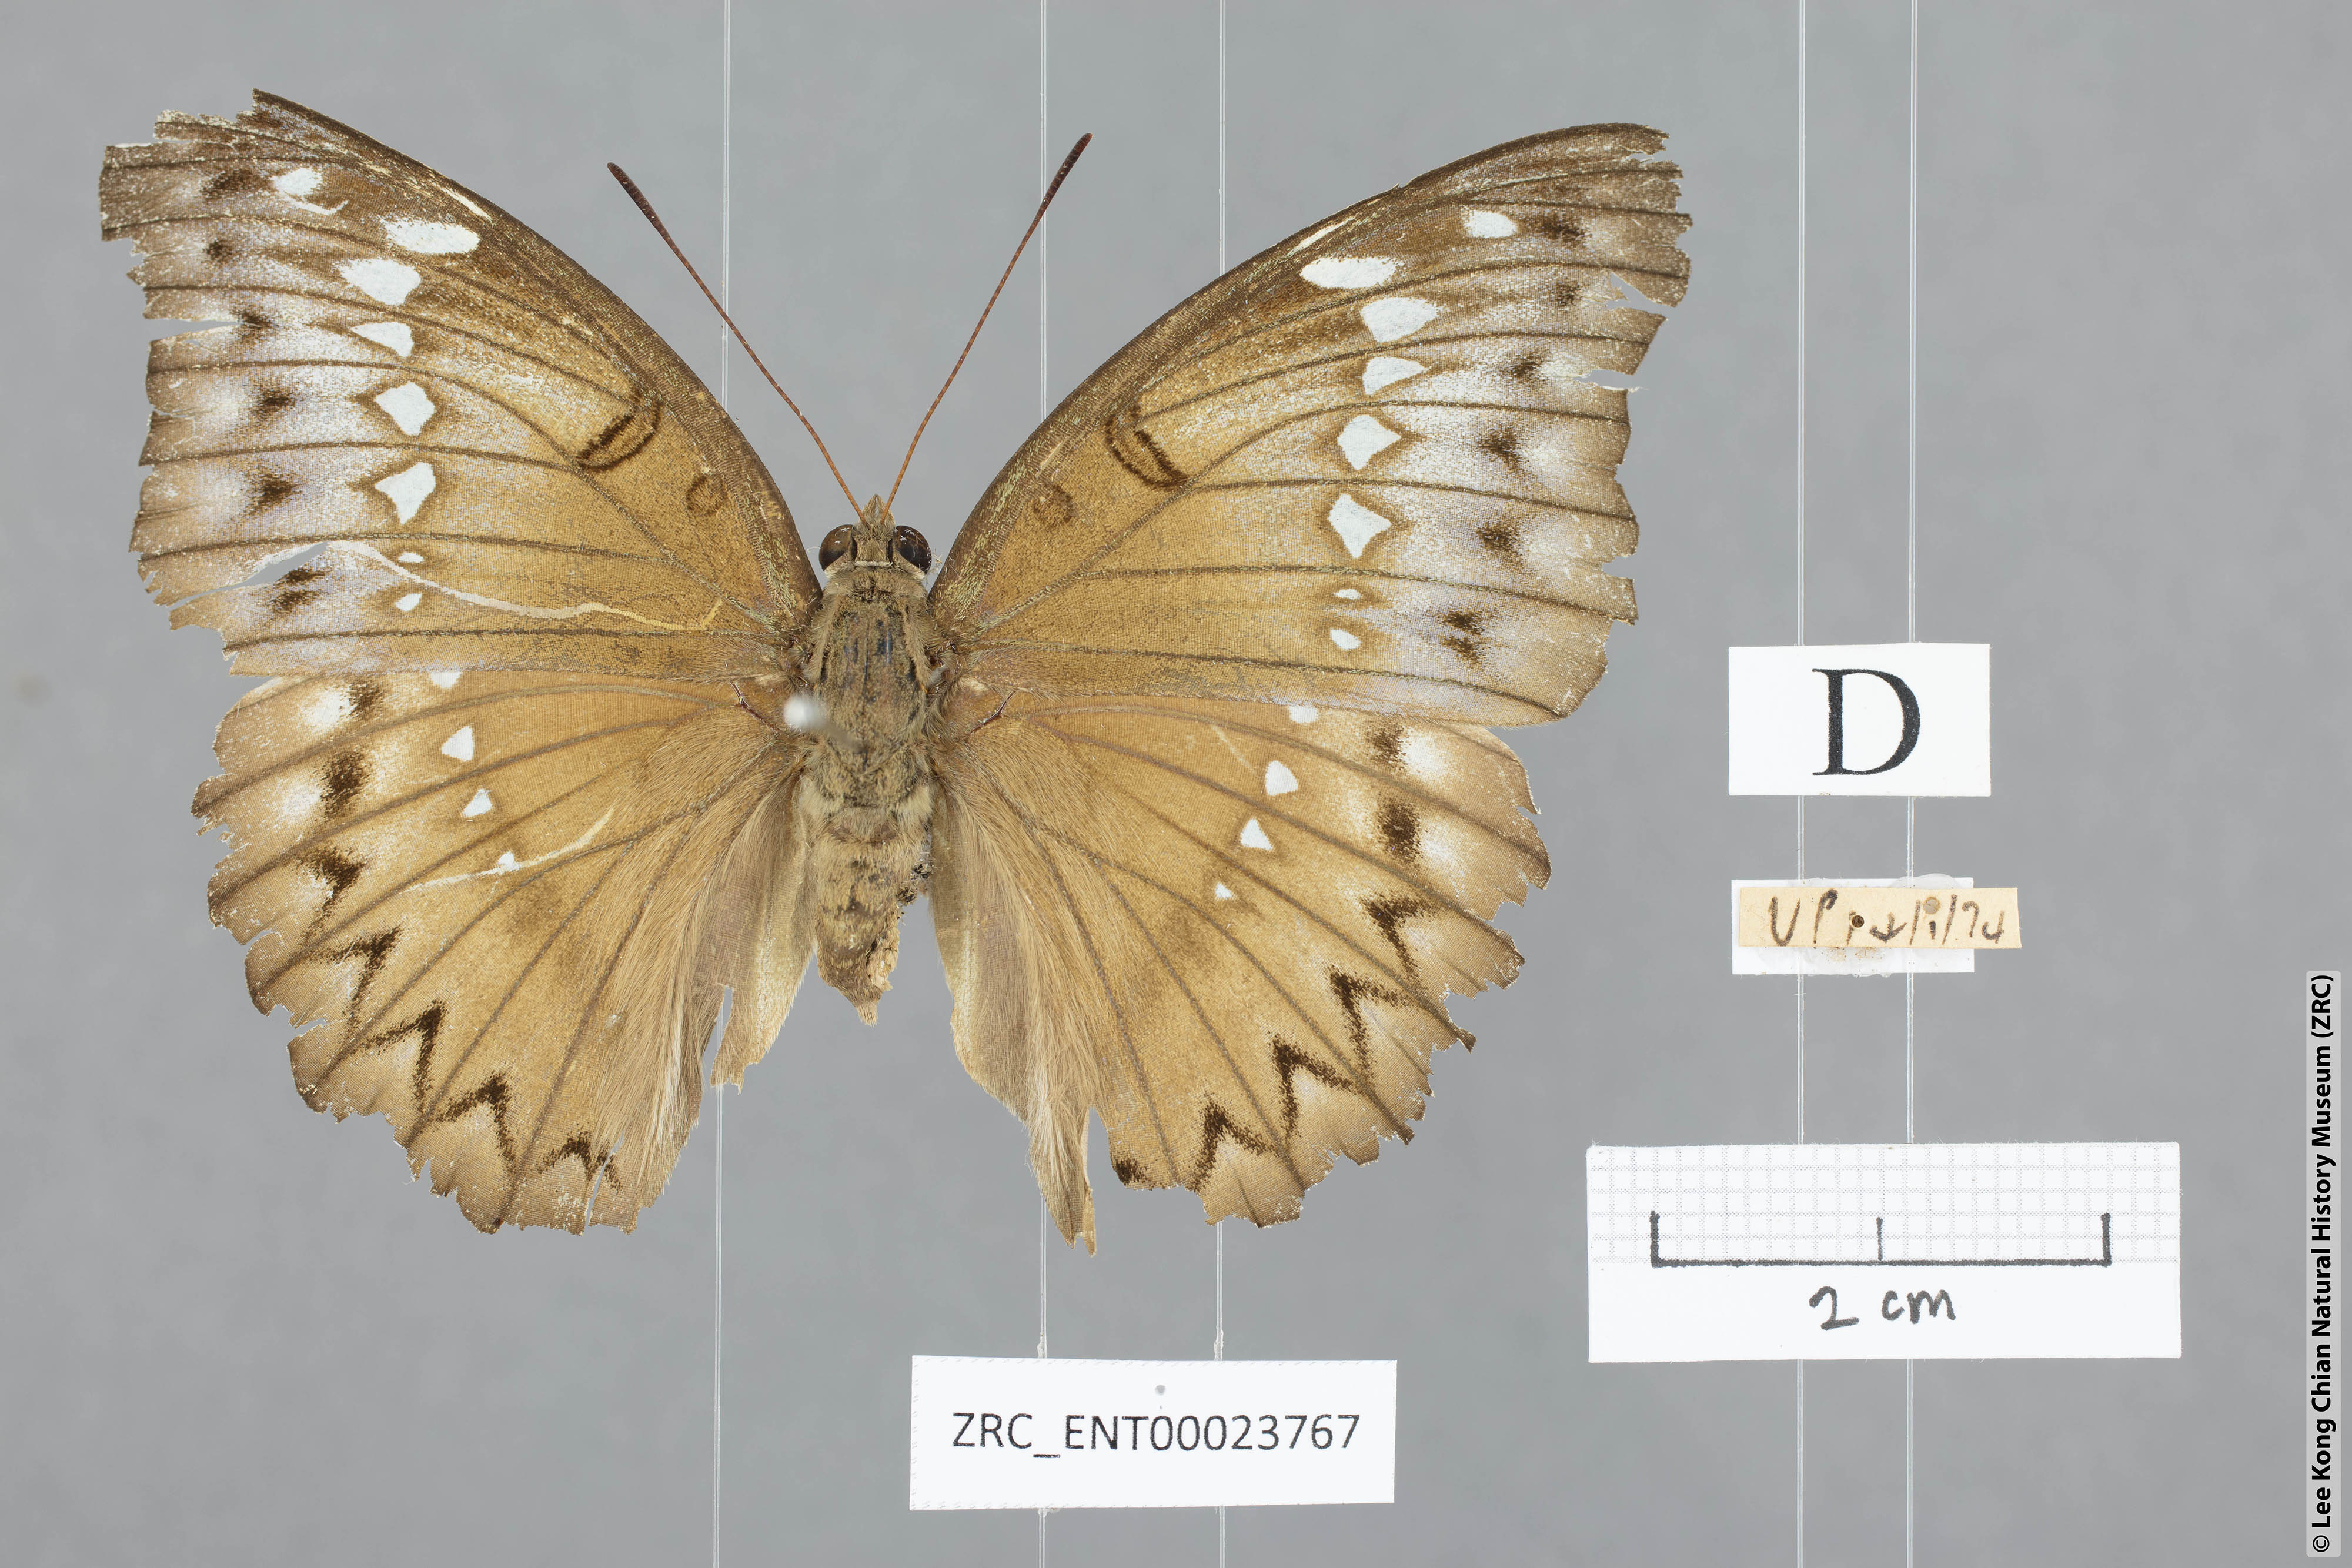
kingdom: Animalia
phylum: Arthropoda
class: Insecta
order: Lepidoptera
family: Nymphalidae
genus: Euthalia
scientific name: Euthalia Bassarona teuta
